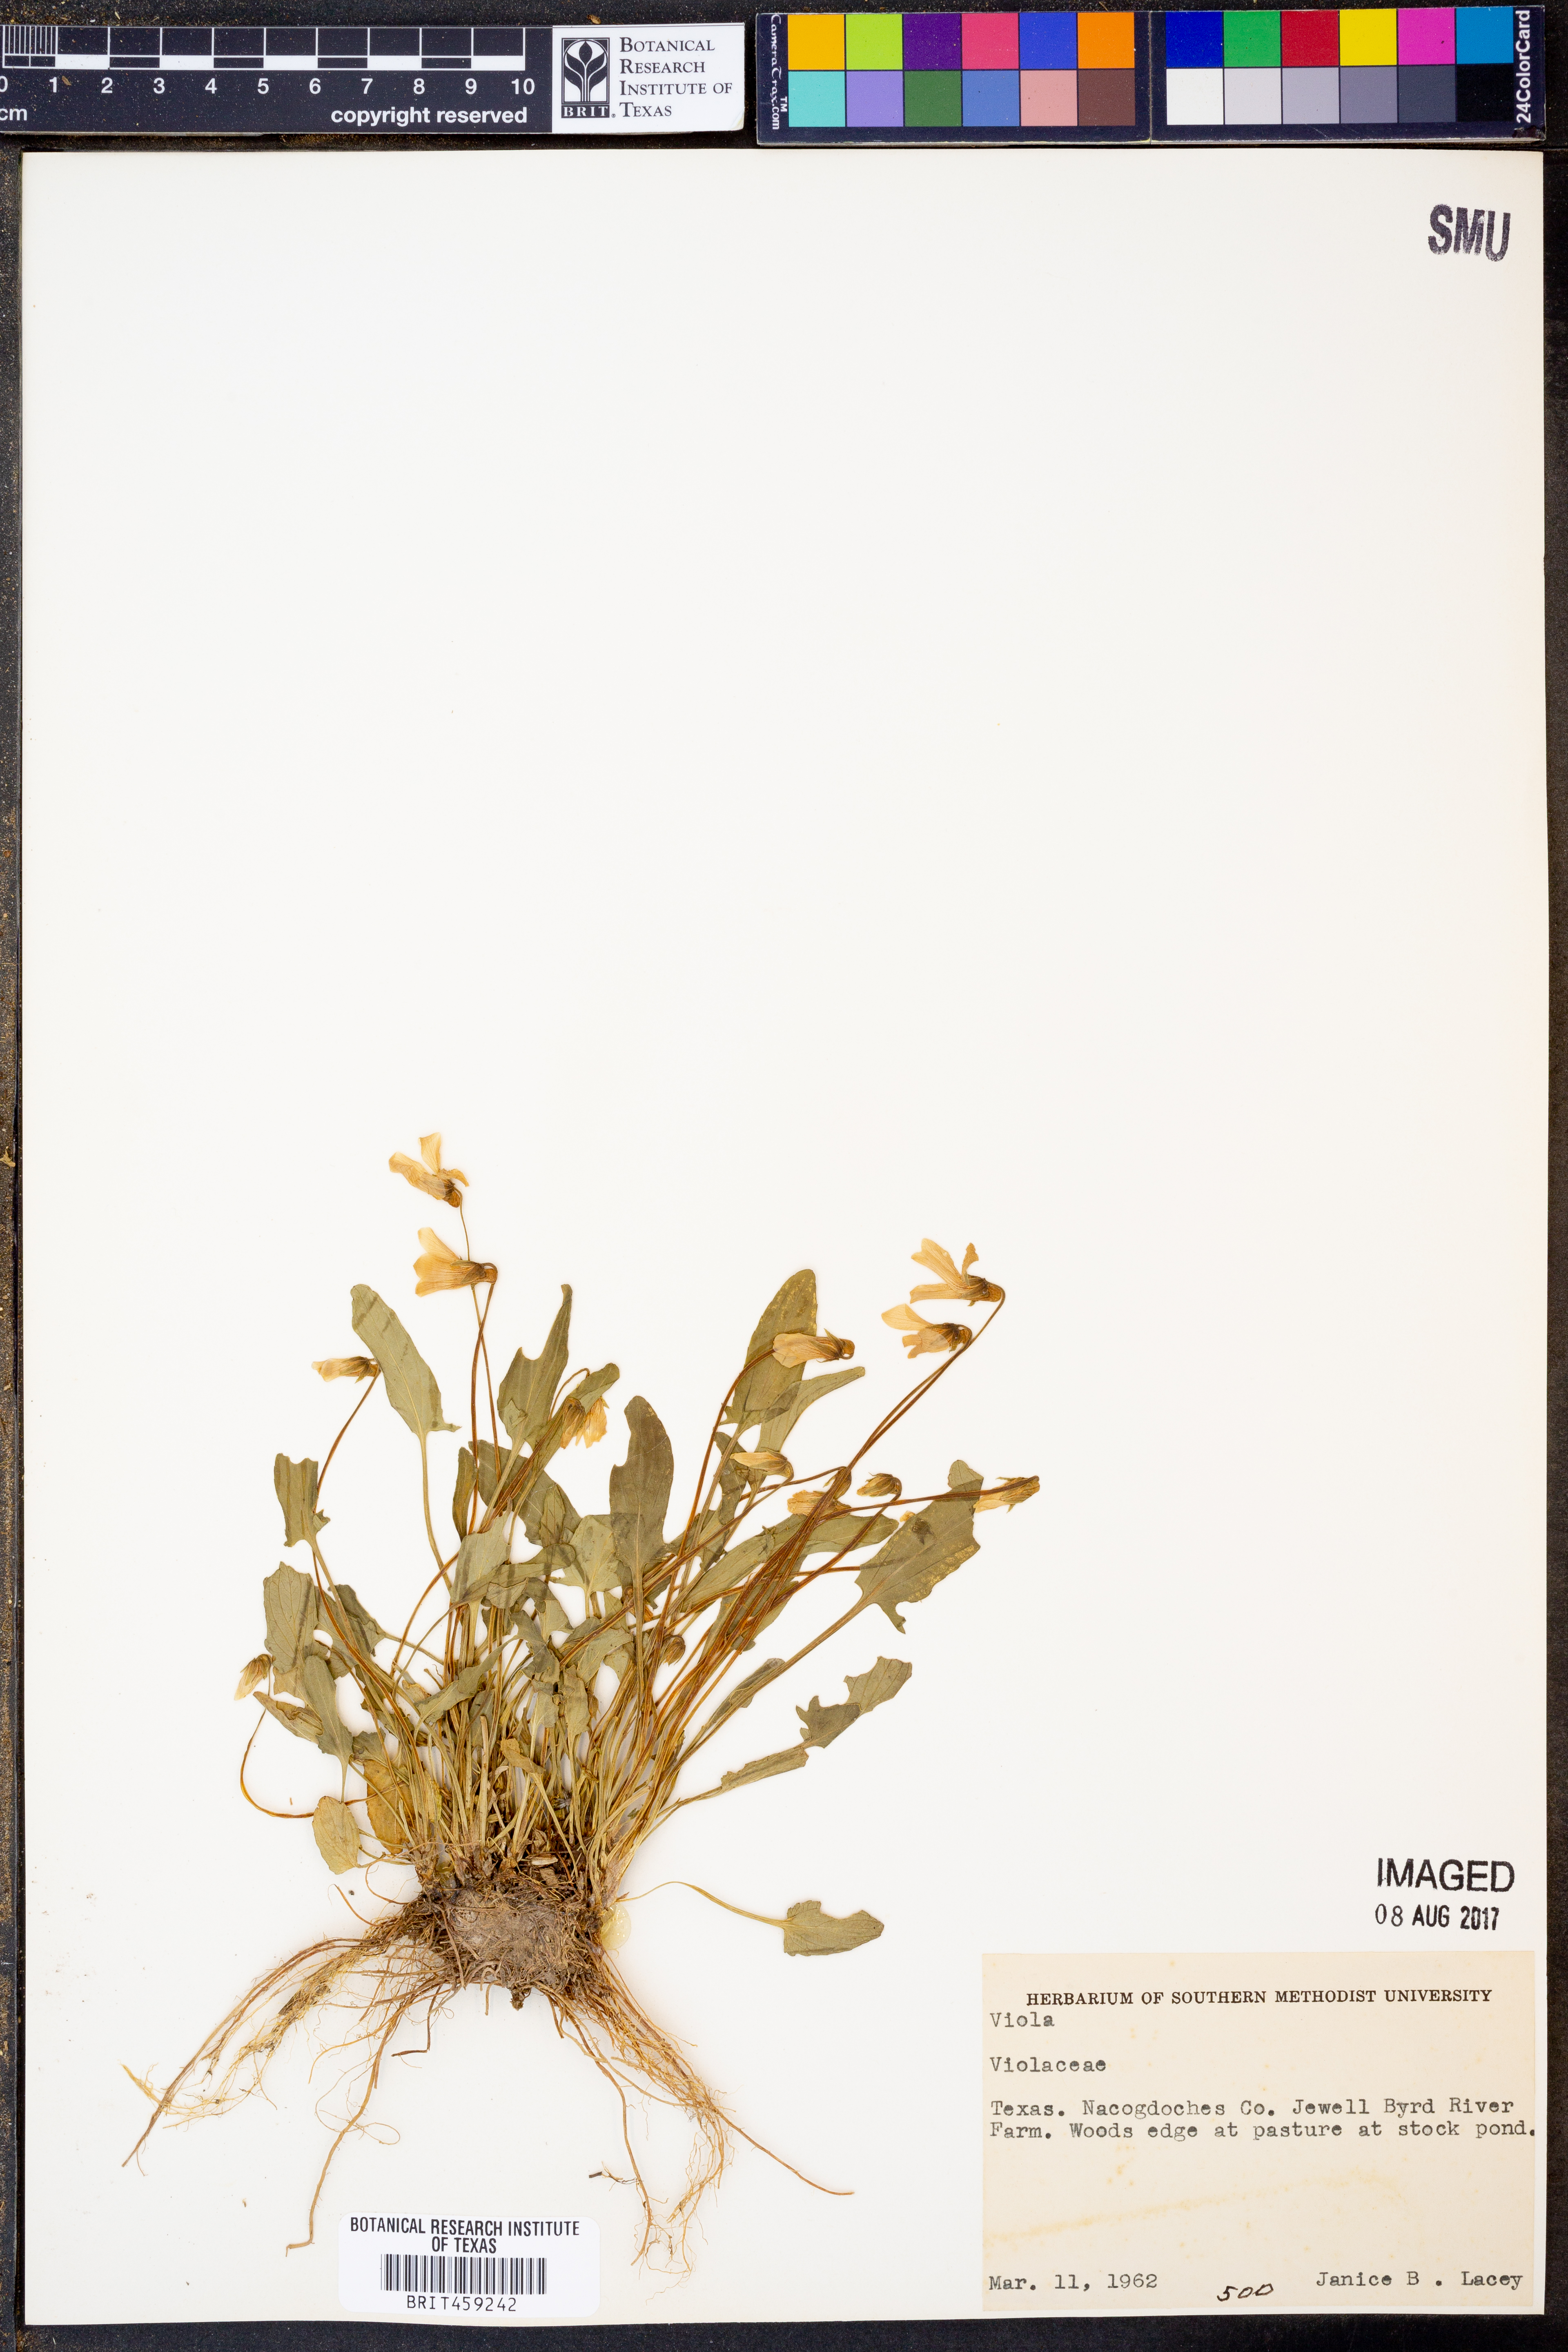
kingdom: Plantae
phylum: Tracheophyta
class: Magnoliopsida
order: Malpighiales
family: Violaceae
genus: Viola
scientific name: Viola
